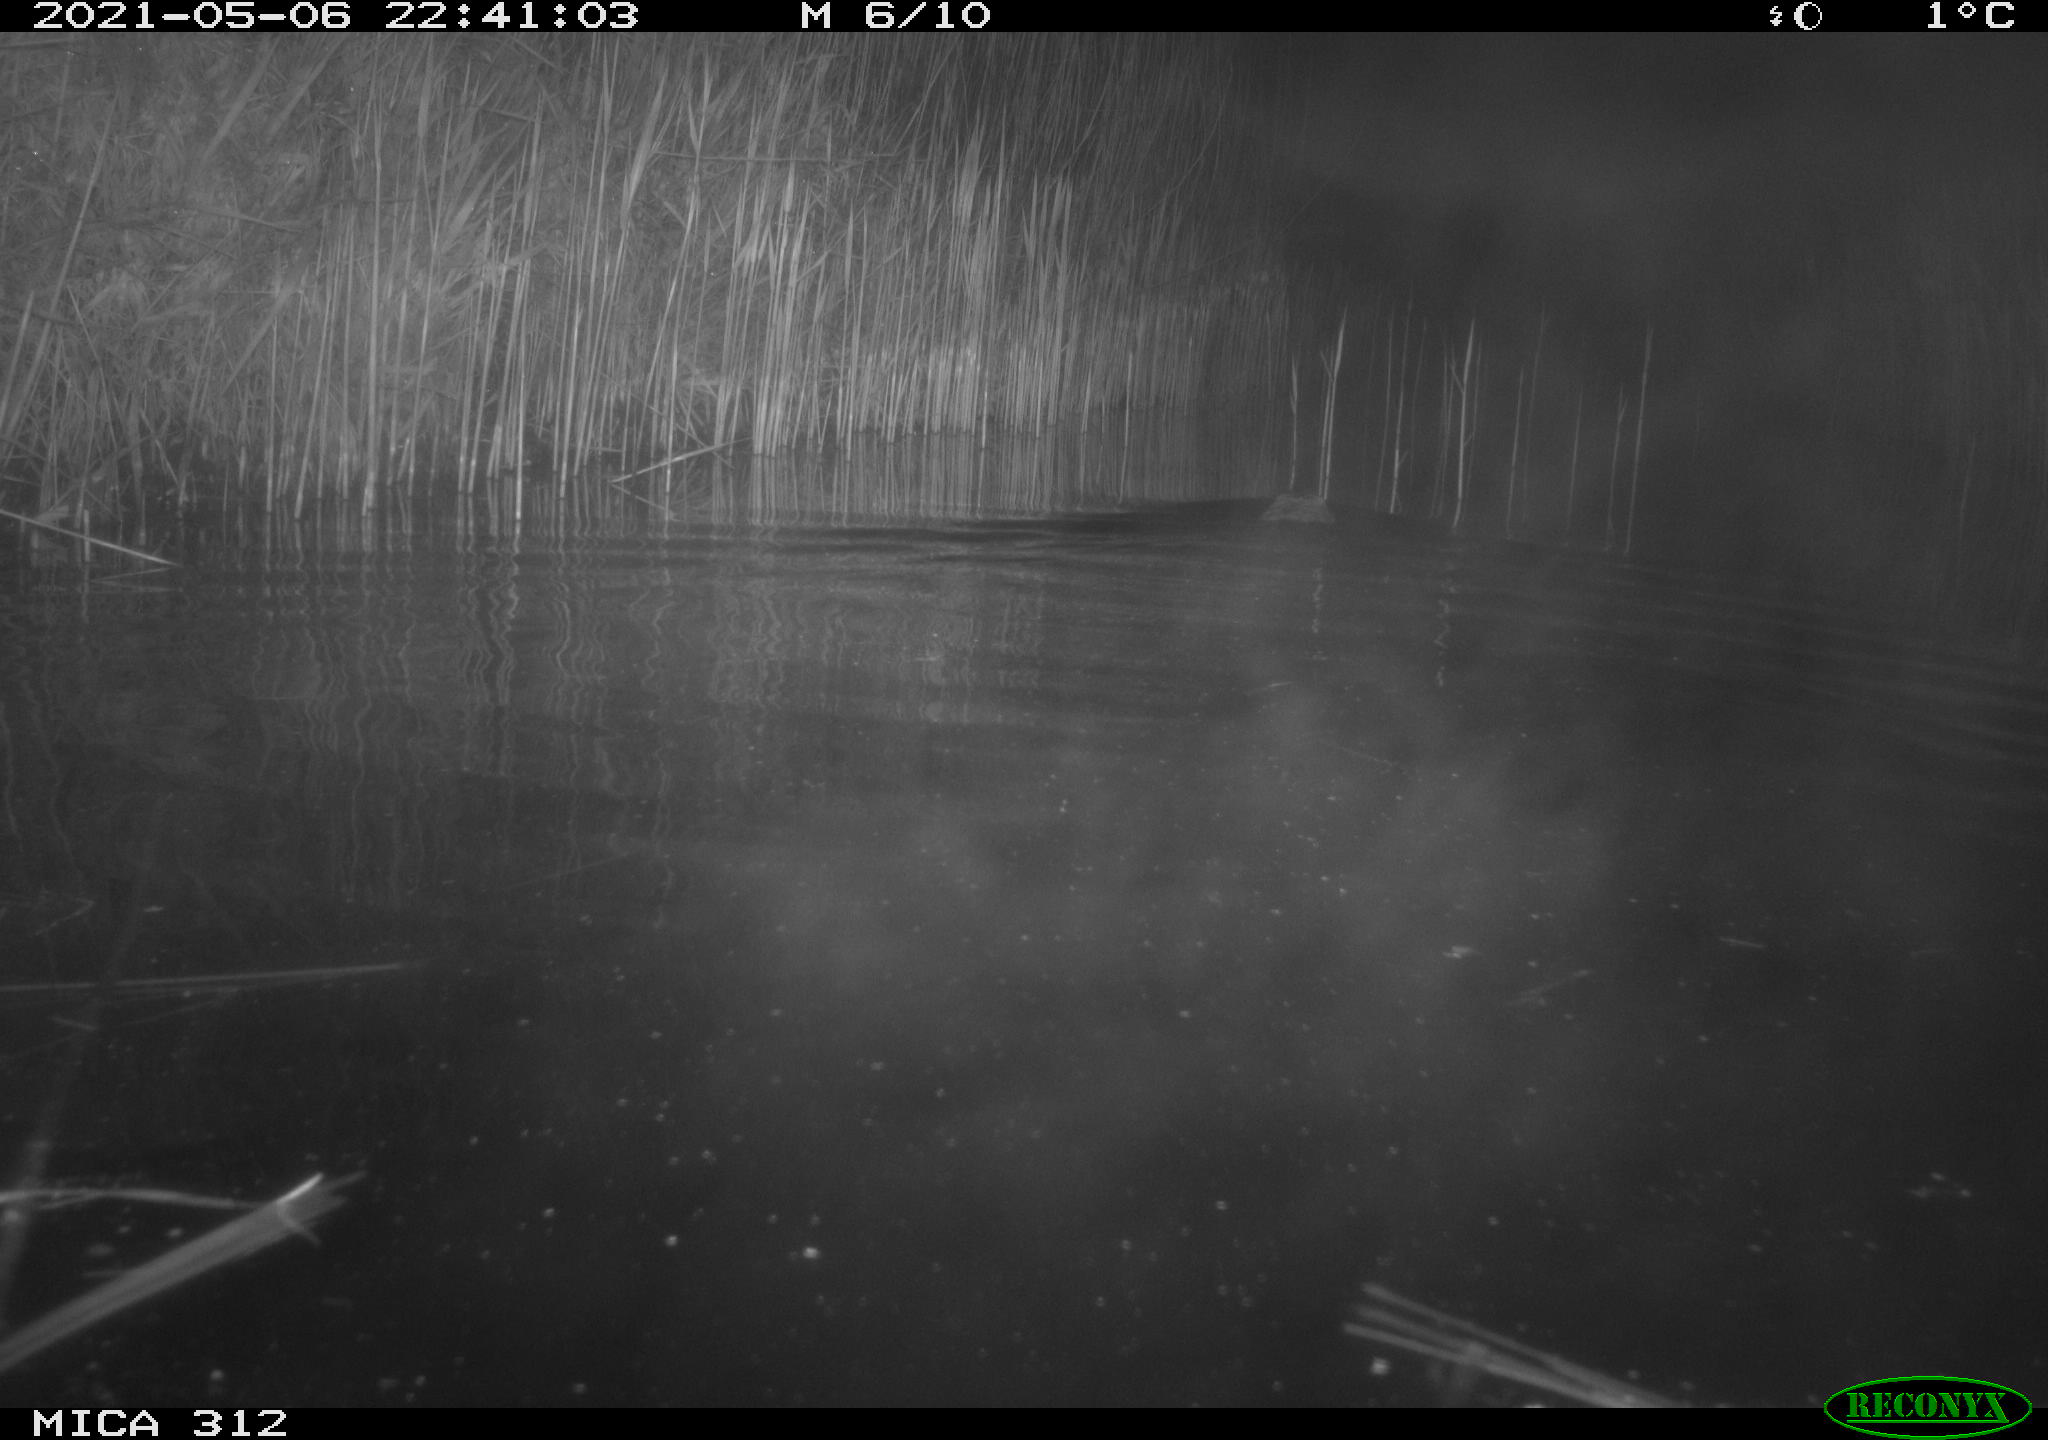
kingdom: Animalia
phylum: Chordata
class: Mammalia
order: Rodentia
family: Cricetidae
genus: Ondatra
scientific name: Ondatra zibethicus
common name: Muskrat
